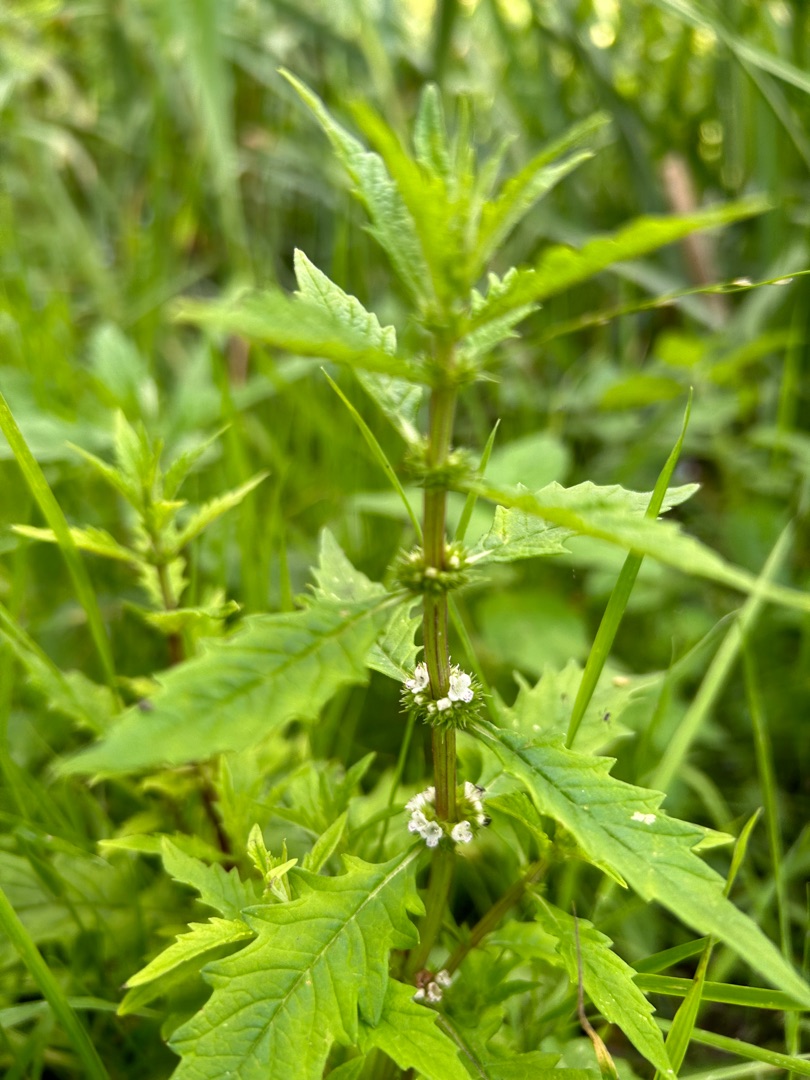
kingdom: Plantae
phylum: Tracheophyta
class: Magnoliopsida
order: Lamiales
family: Lamiaceae
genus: Lycopus
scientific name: Lycopus europaeus
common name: Sværtevæld
